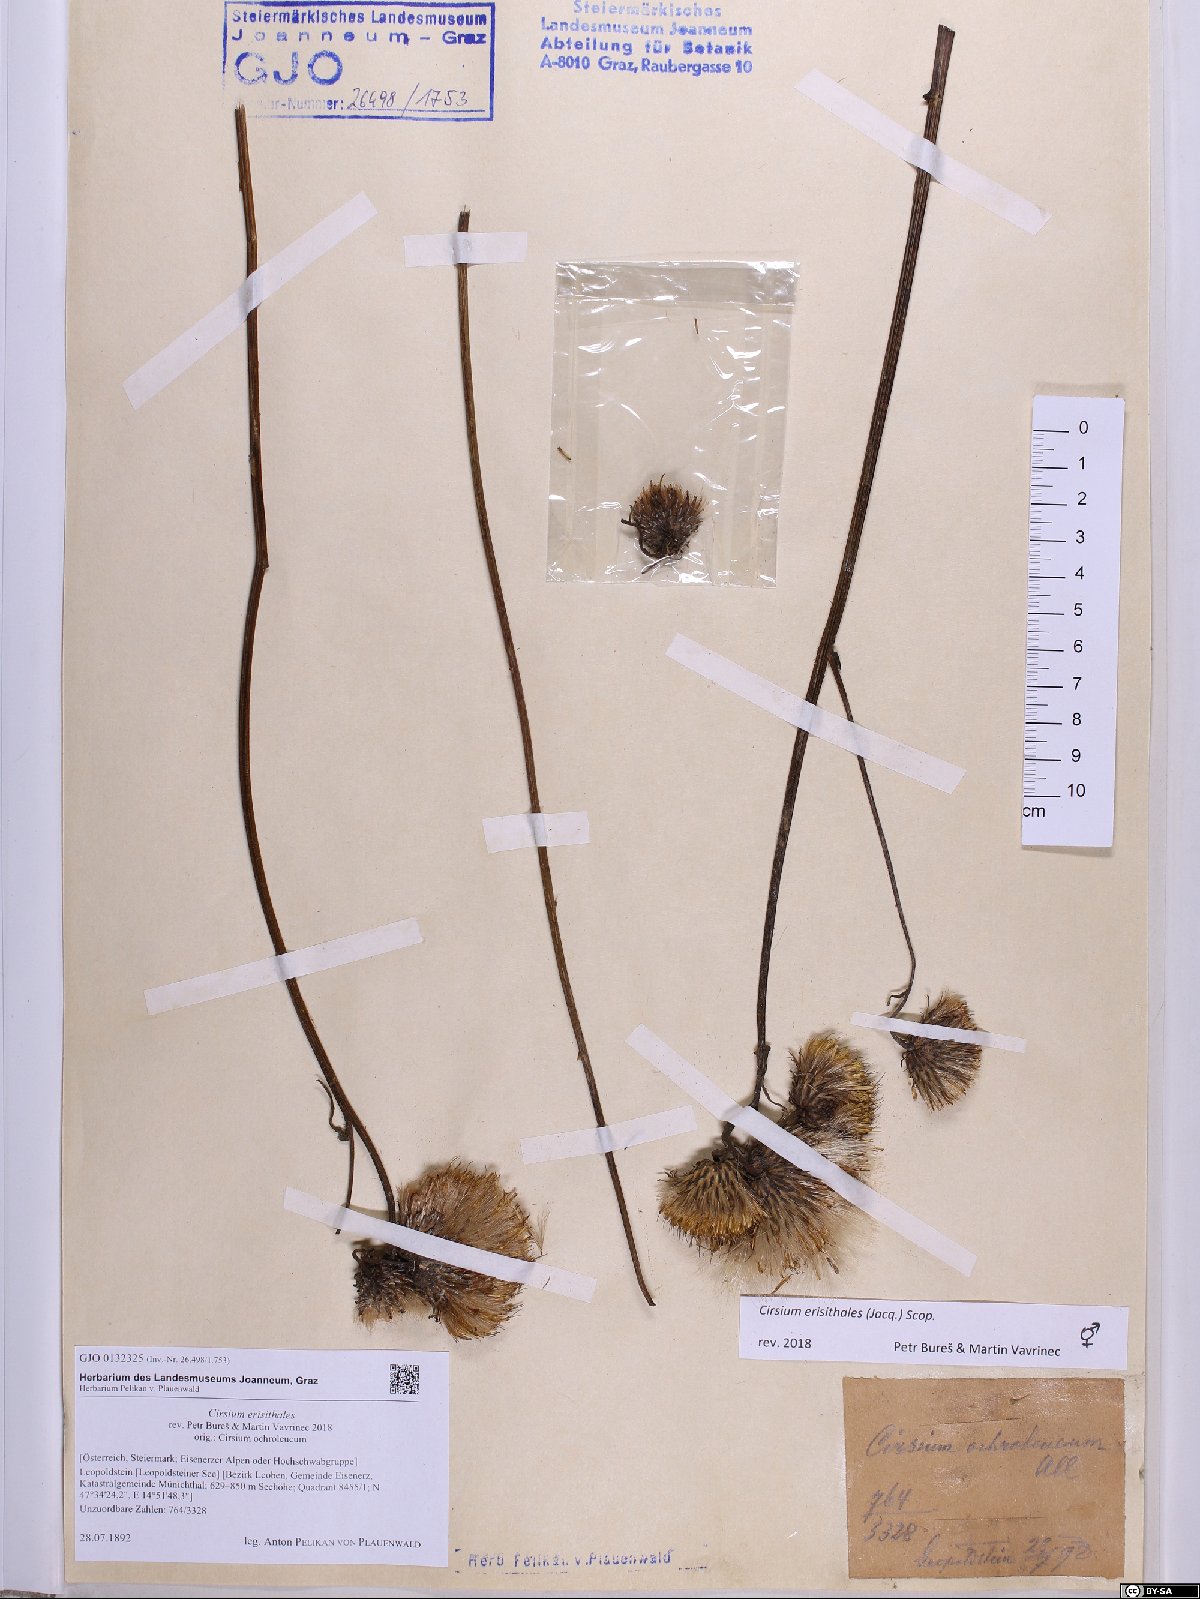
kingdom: Plantae
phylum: Tracheophyta
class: Magnoliopsida
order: Asterales
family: Asteraceae
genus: Cirsium
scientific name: Cirsium erisithales
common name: Yellow thistle
